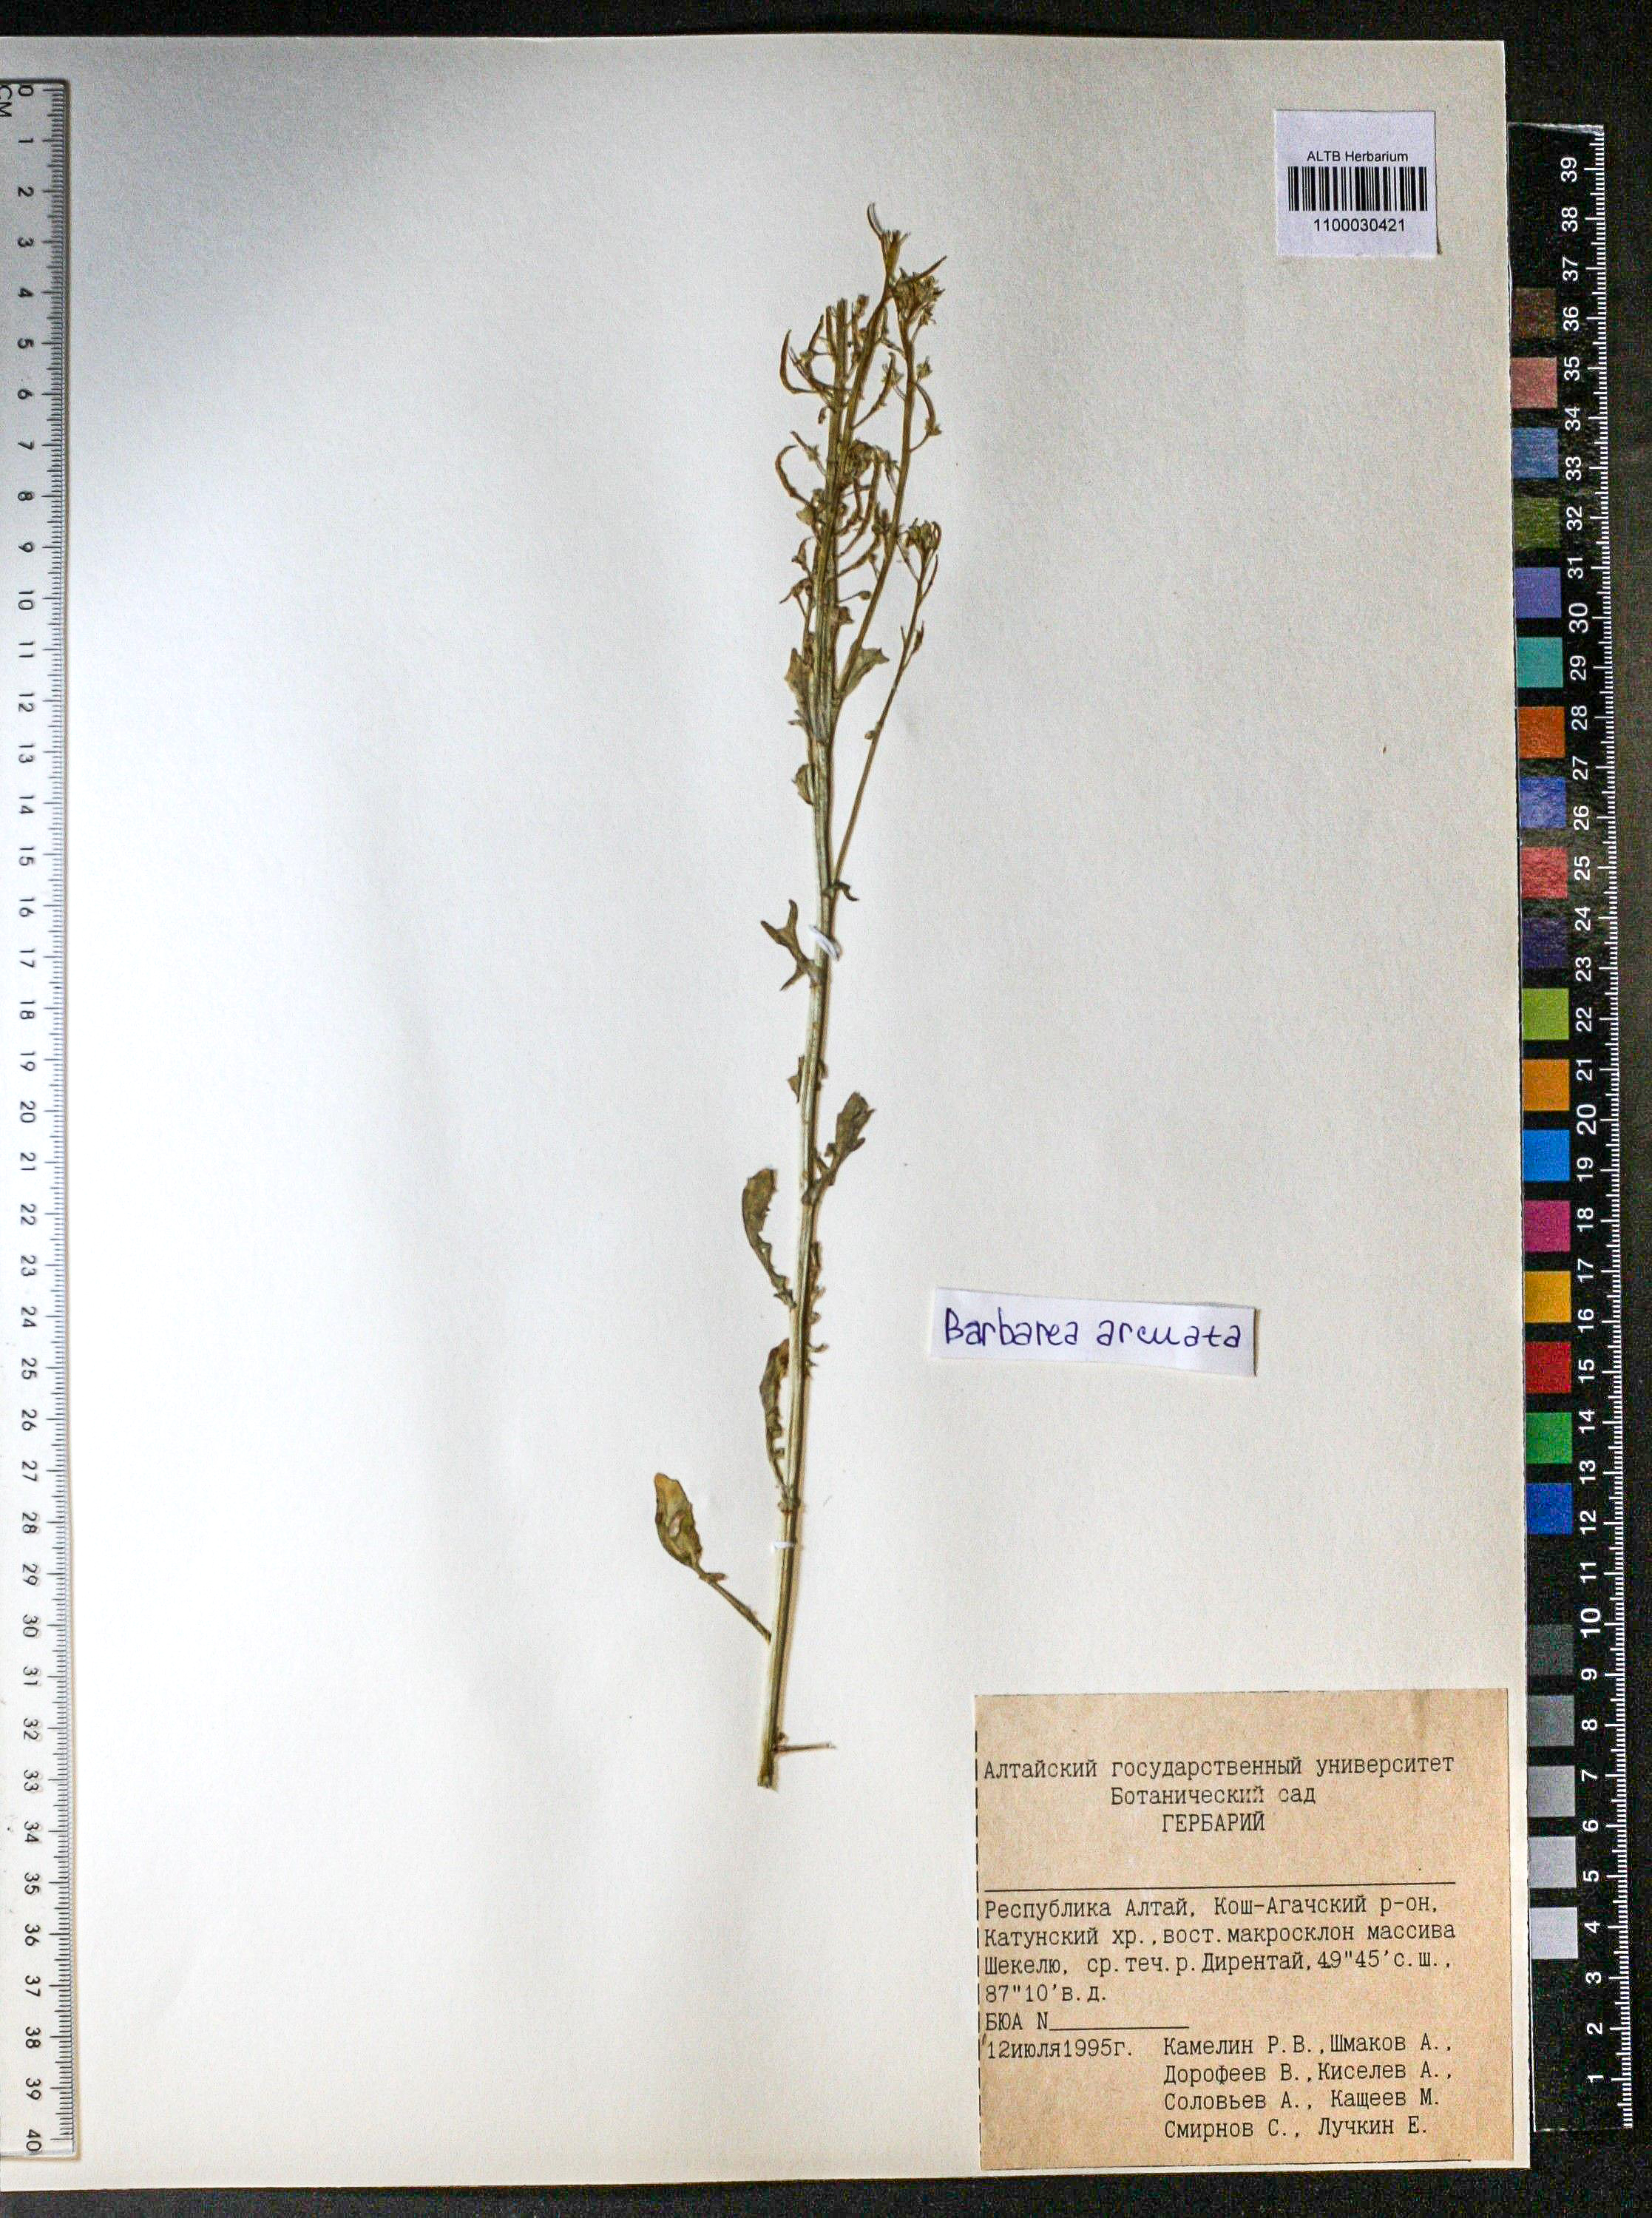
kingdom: Plantae
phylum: Tracheophyta
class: Magnoliopsida
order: Brassicales
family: Brassicaceae
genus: Barbarea
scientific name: Barbarea vulgaris
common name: Cressy-greens
